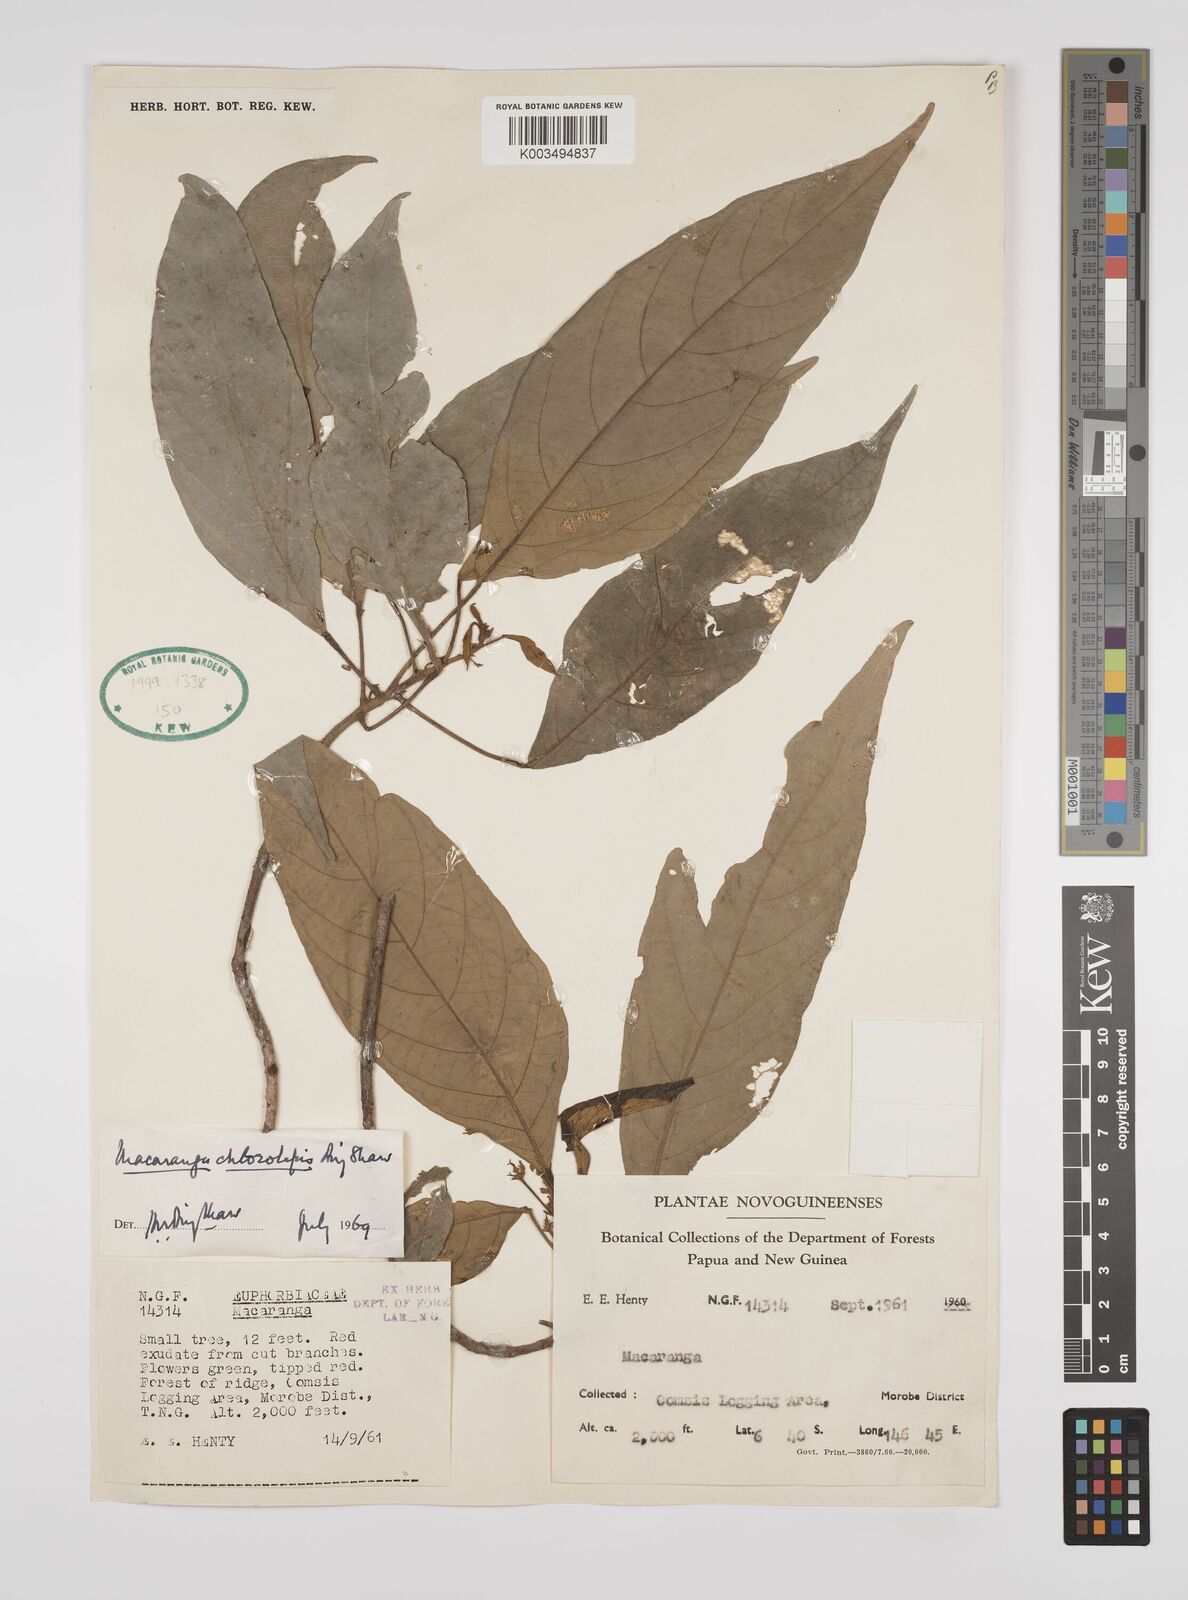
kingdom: Plantae
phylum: Tracheophyta
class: Magnoliopsida
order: Malpighiales
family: Euphorbiaceae
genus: Macaranga
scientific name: Macaranga chlorolepis
